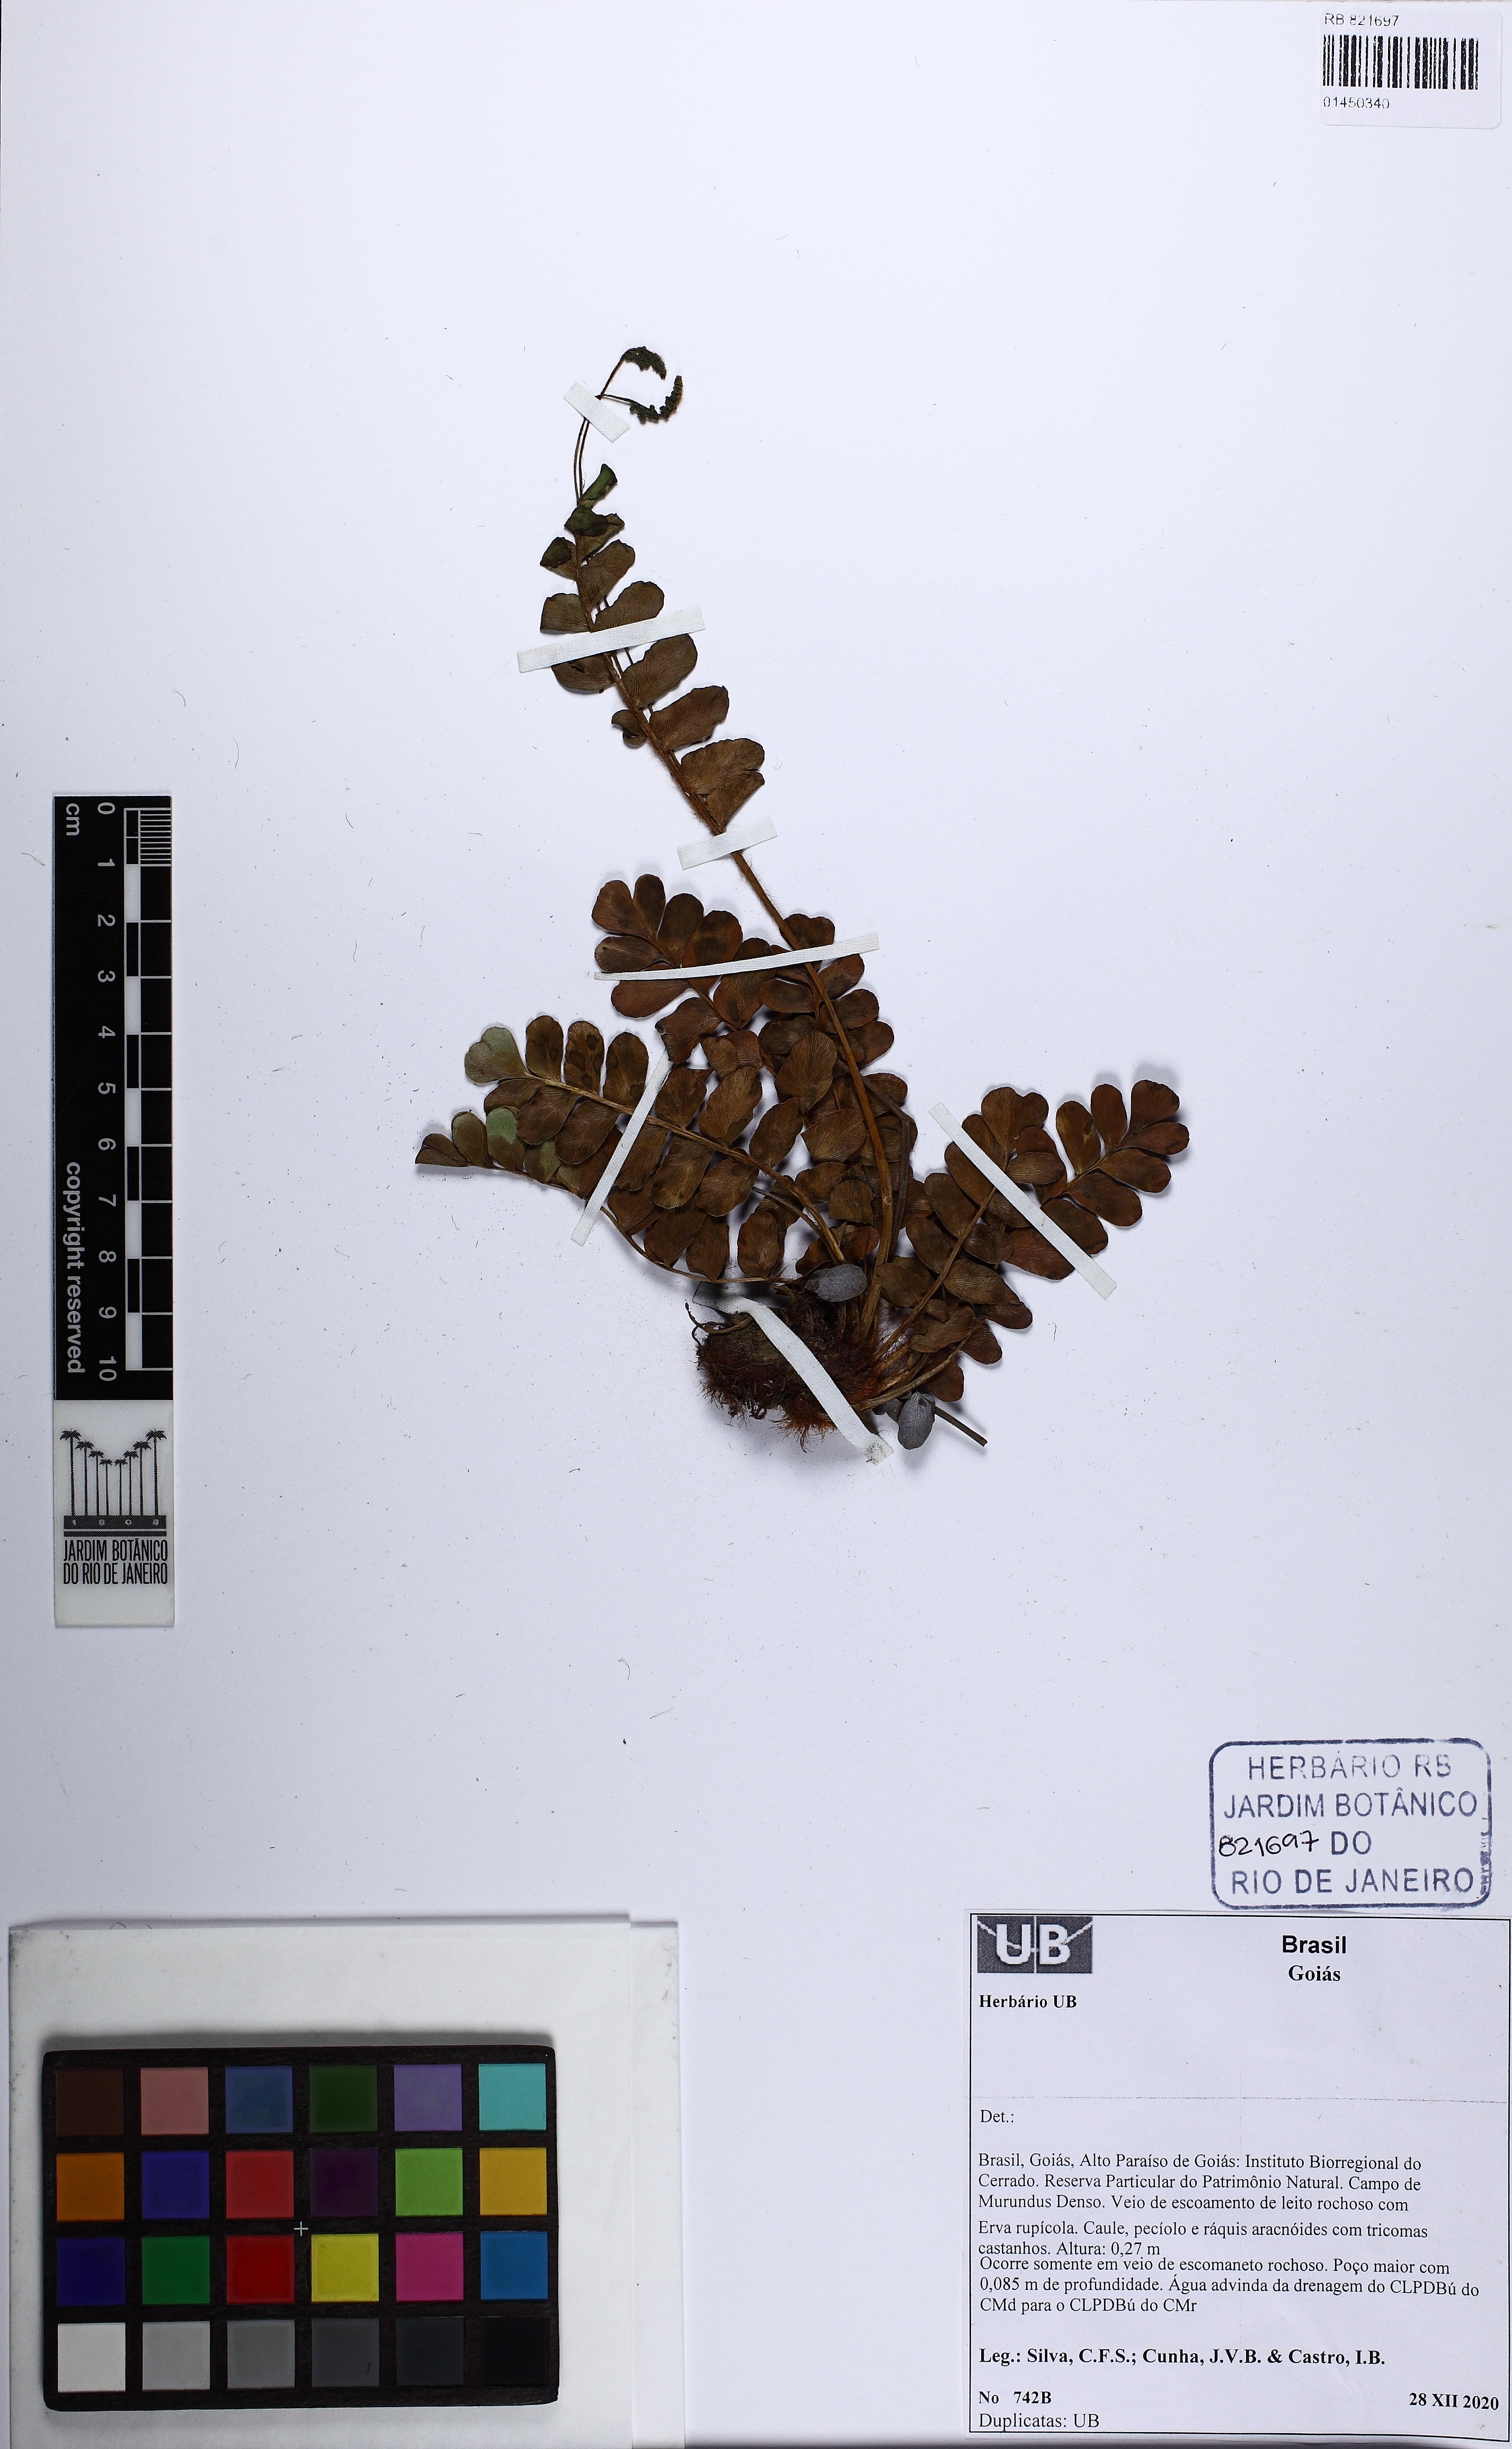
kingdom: Plantae
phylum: Tracheophyta
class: Polypodiopsida
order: Schizaeales
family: Anemiaceae
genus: Anemia
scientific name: Anemia mynsseniana
